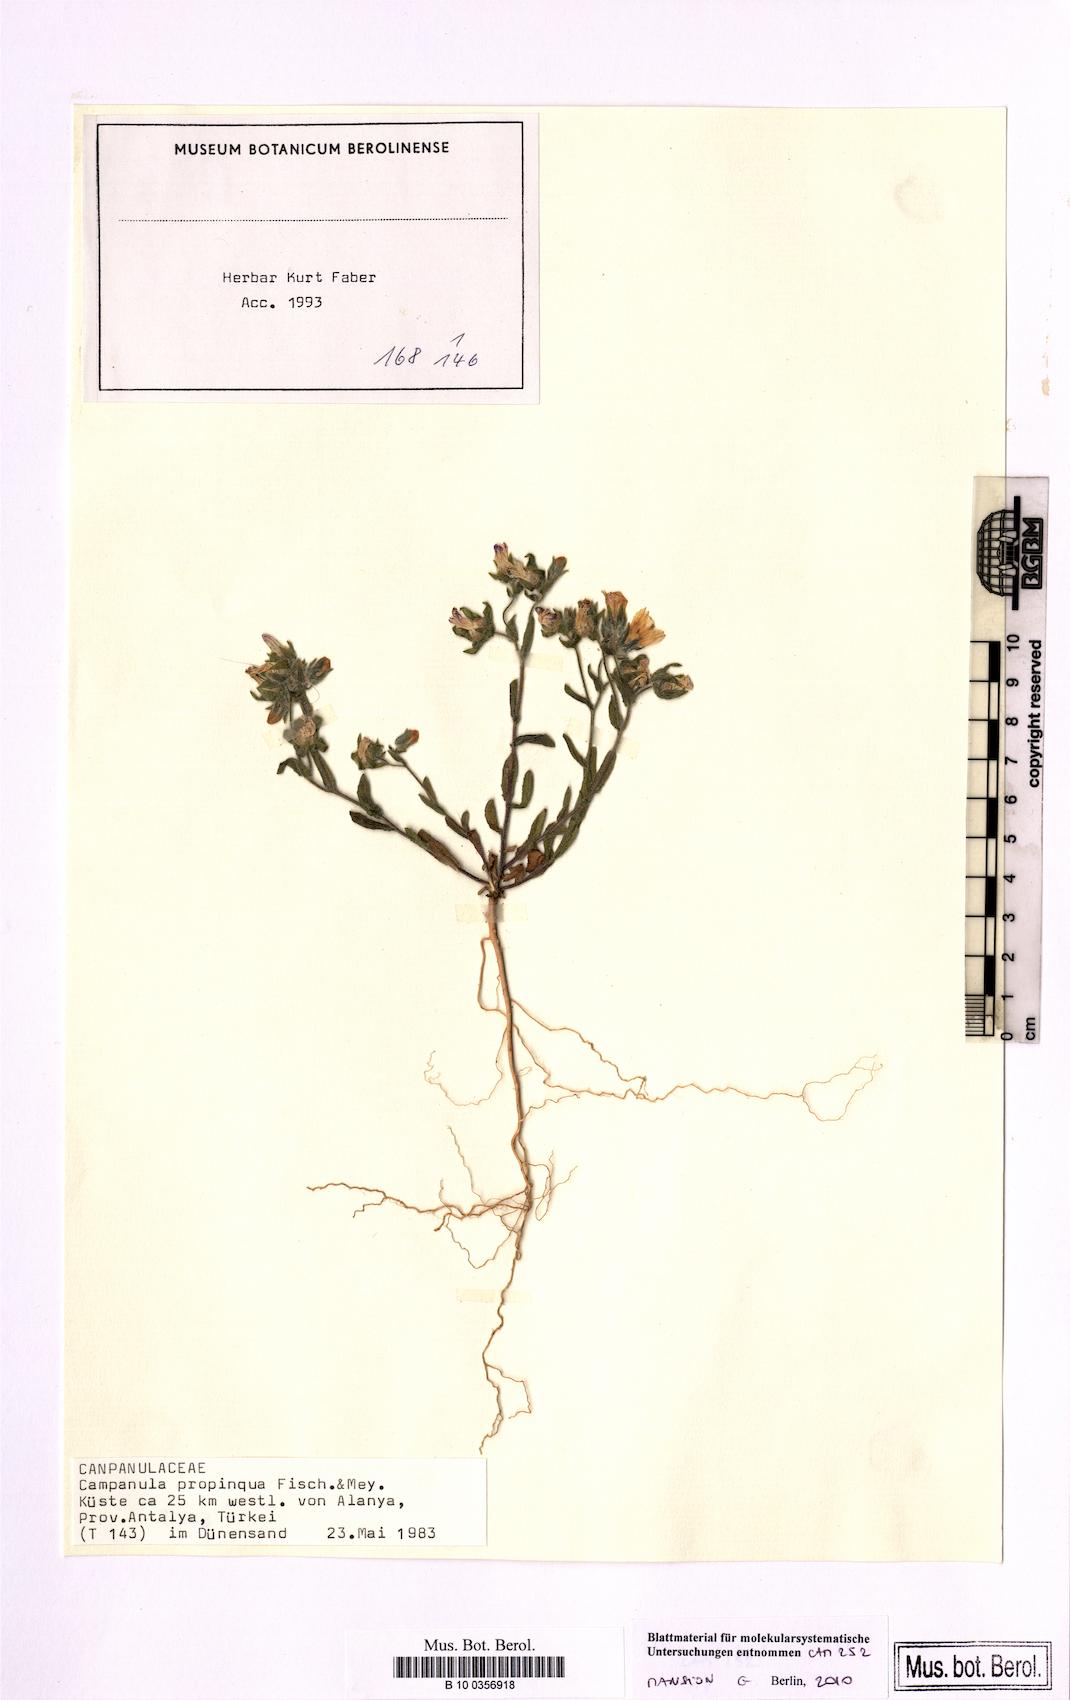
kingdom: Plantae
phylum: Tracheophyta
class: Magnoliopsida
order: Asterales
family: Campanulaceae
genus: Campanula
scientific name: Campanula propinqua
